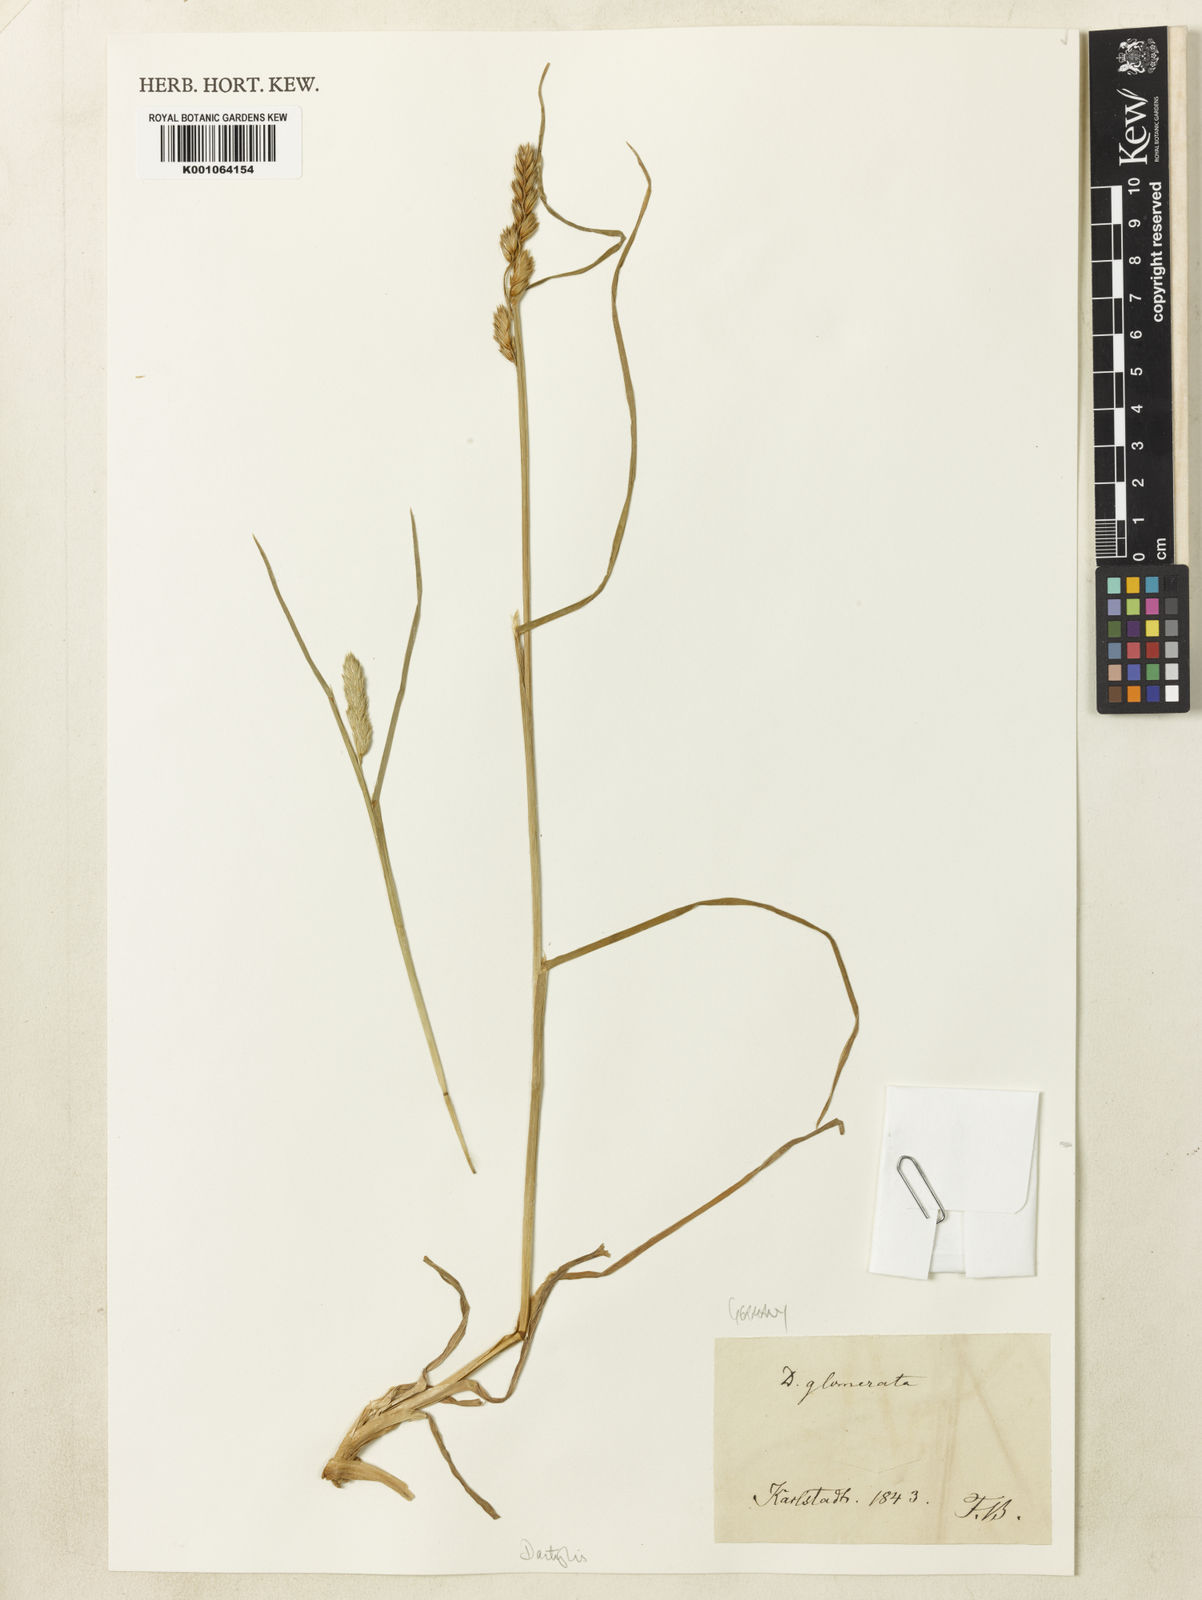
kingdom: Plantae
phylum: Tracheophyta
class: Liliopsida
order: Poales
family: Poaceae
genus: Dactylis
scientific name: Dactylis glomerata
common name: Orchardgrass
